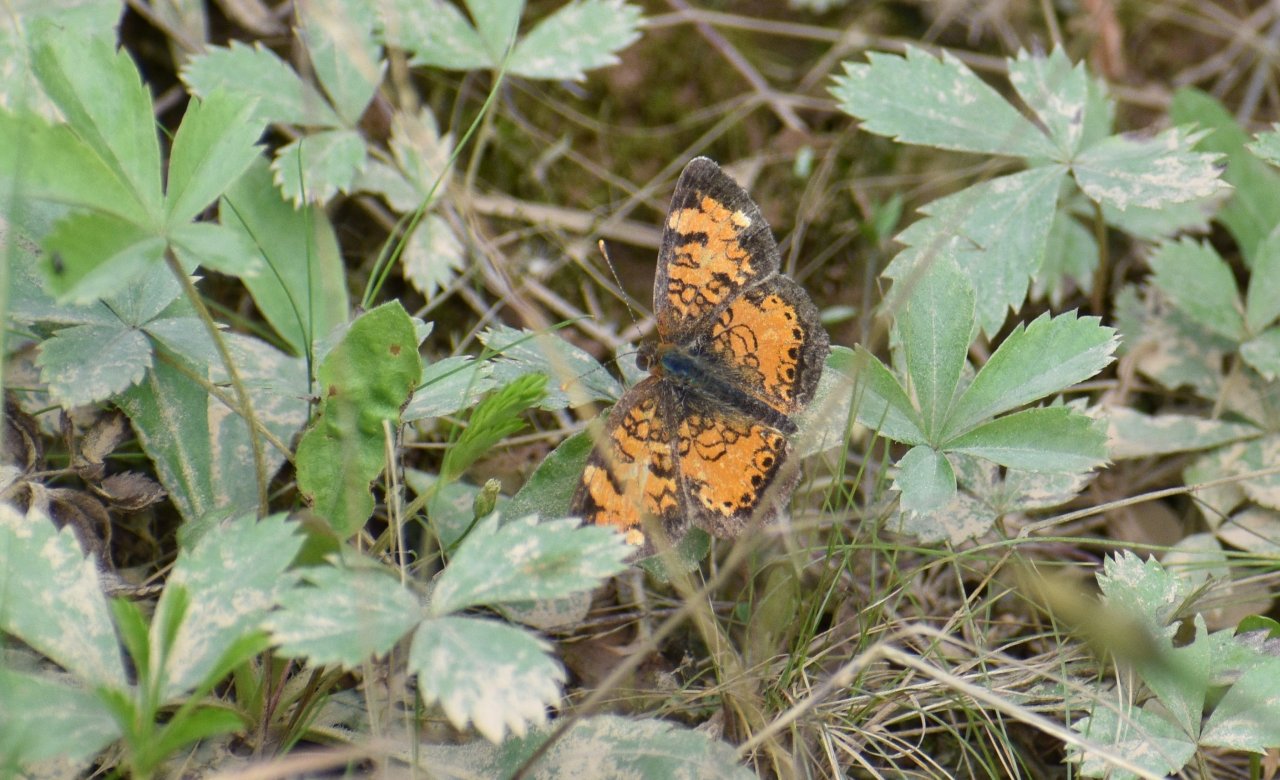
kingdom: Animalia
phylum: Arthropoda
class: Insecta
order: Lepidoptera
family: Nymphalidae
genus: Phyciodes
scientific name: Phyciodes tharos
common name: Northern Crescent
